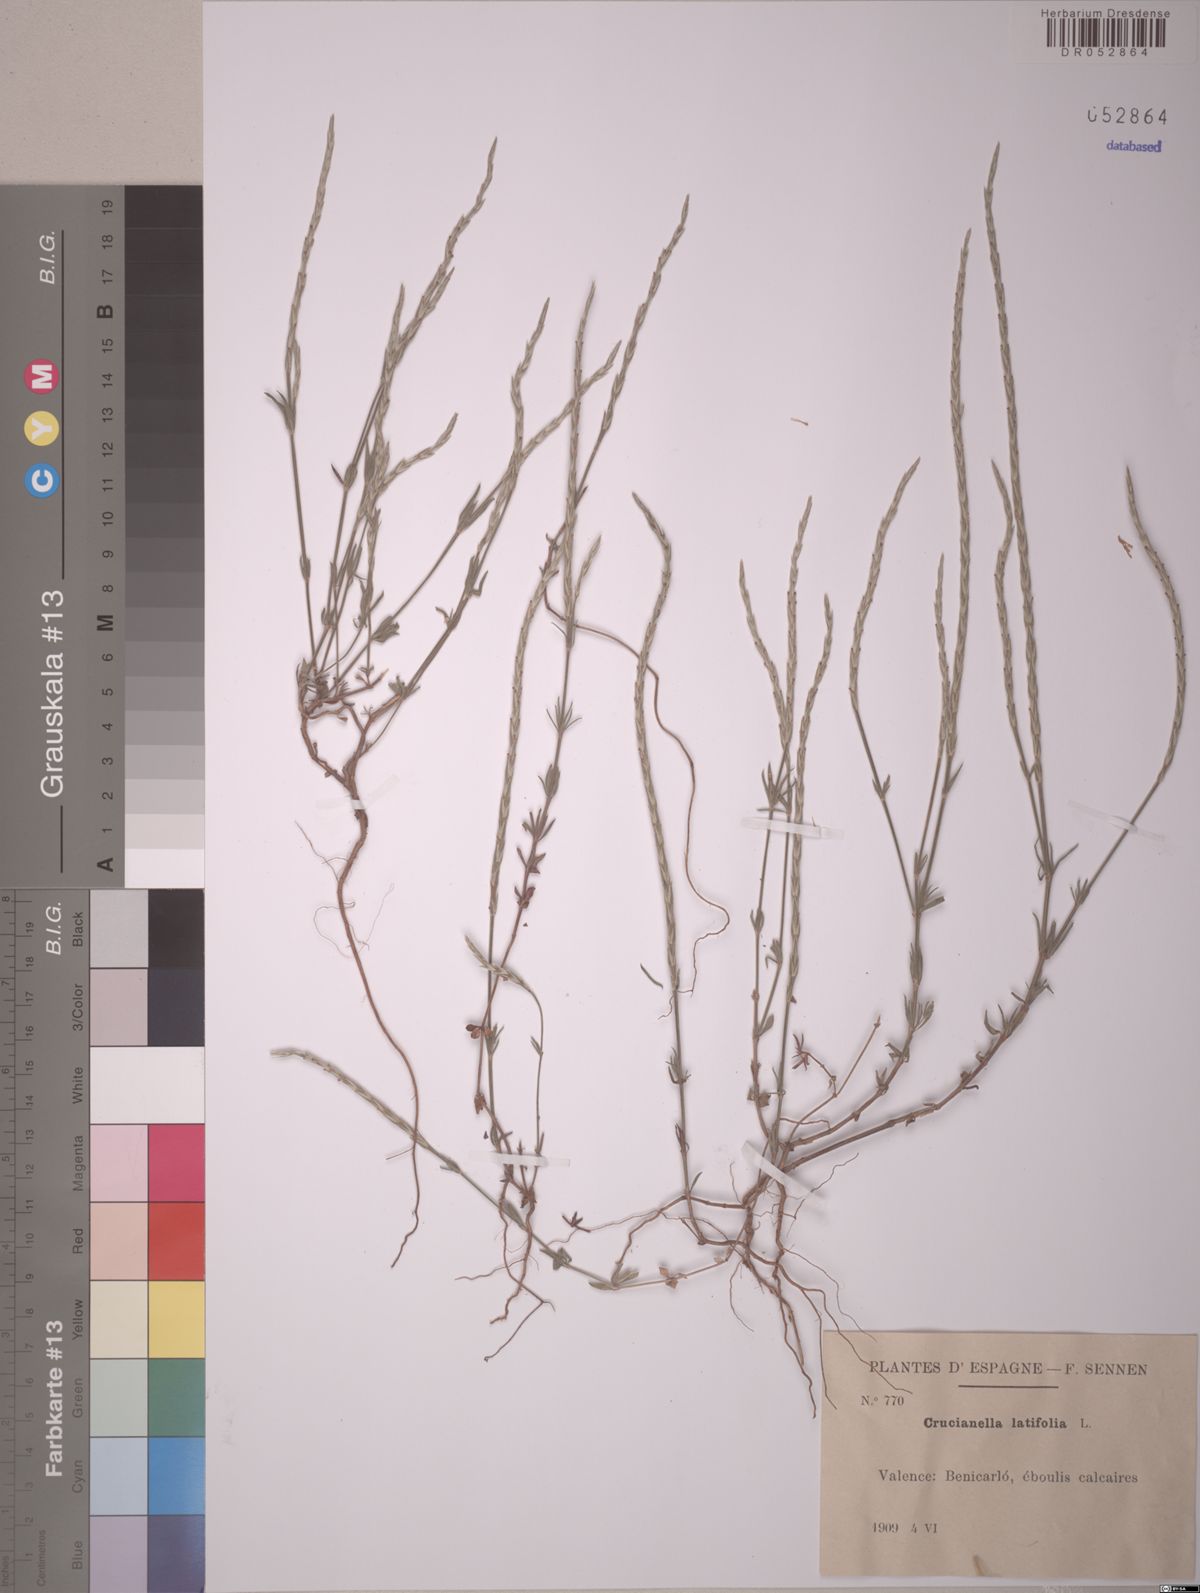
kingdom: Plantae
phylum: Tracheophyta
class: Magnoliopsida
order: Gentianales
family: Rubiaceae
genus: Crucianella
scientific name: Crucianella latifolia
